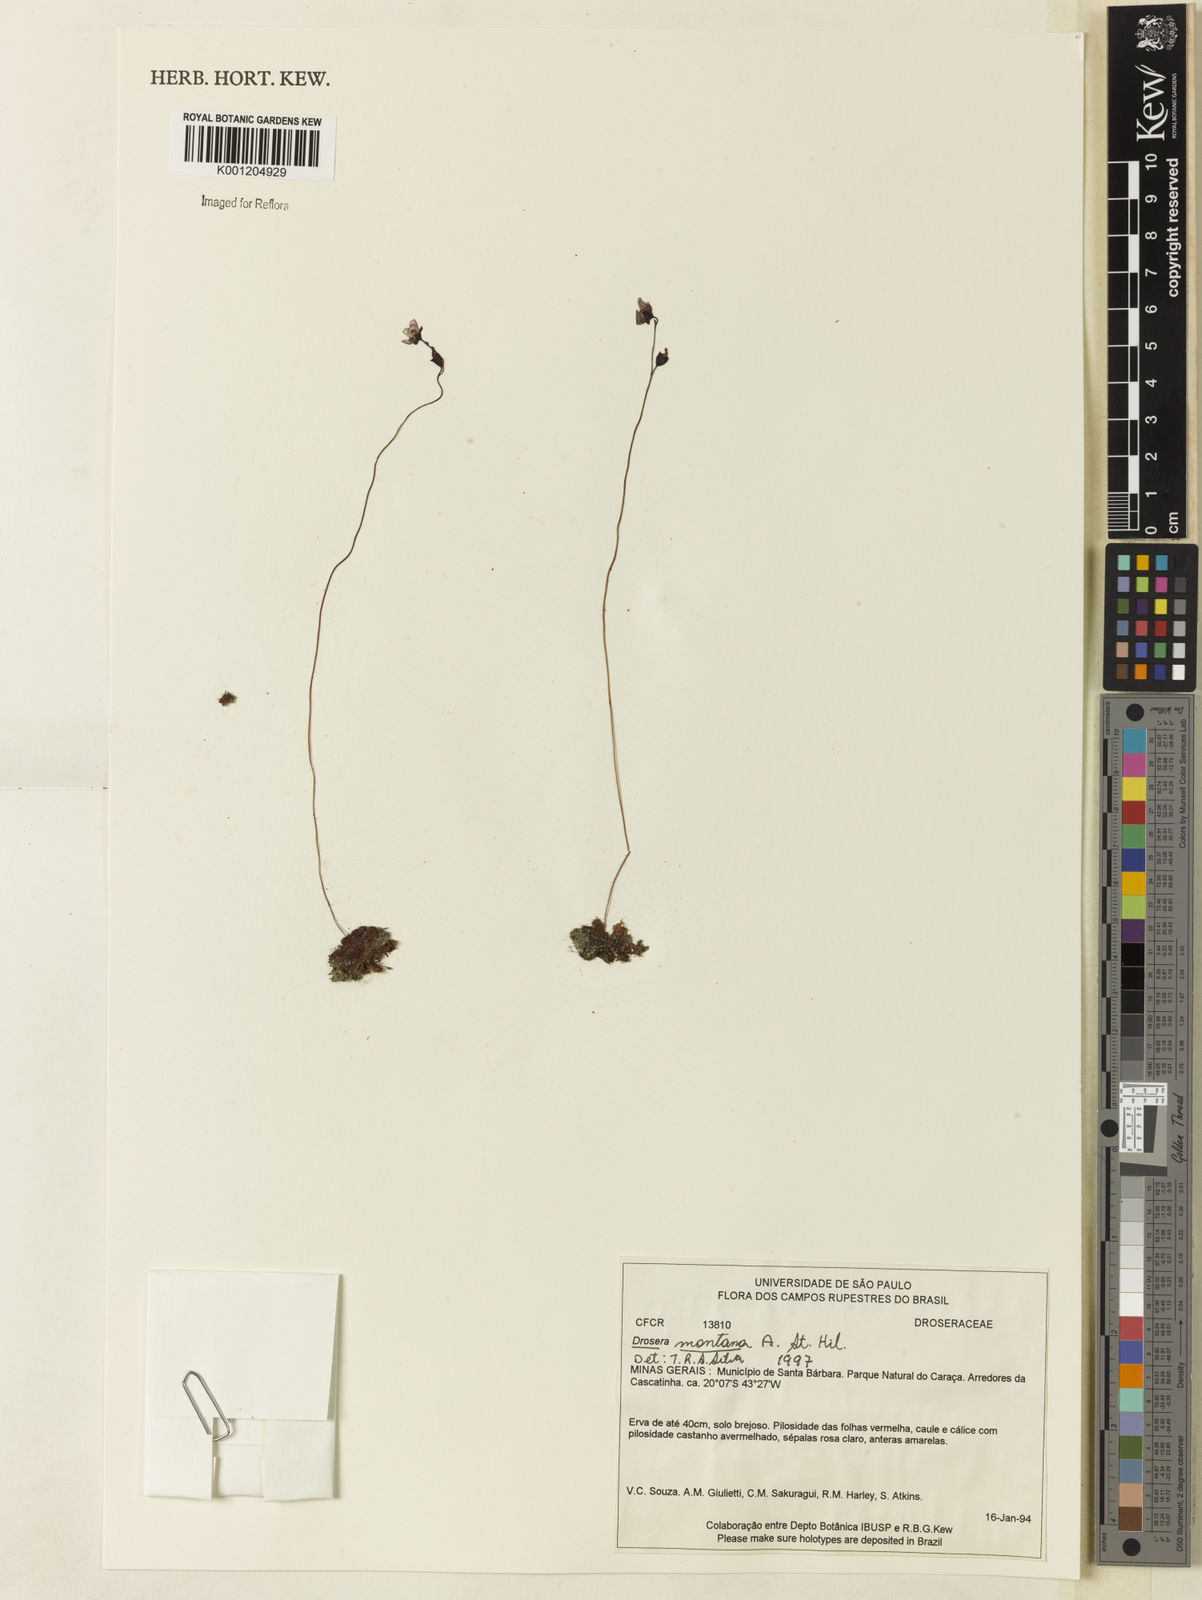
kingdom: Plantae
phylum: Tracheophyta
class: Magnoliopsida
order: Caryophyllales
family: Droseraceae
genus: Drosera
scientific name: Drosera montana
